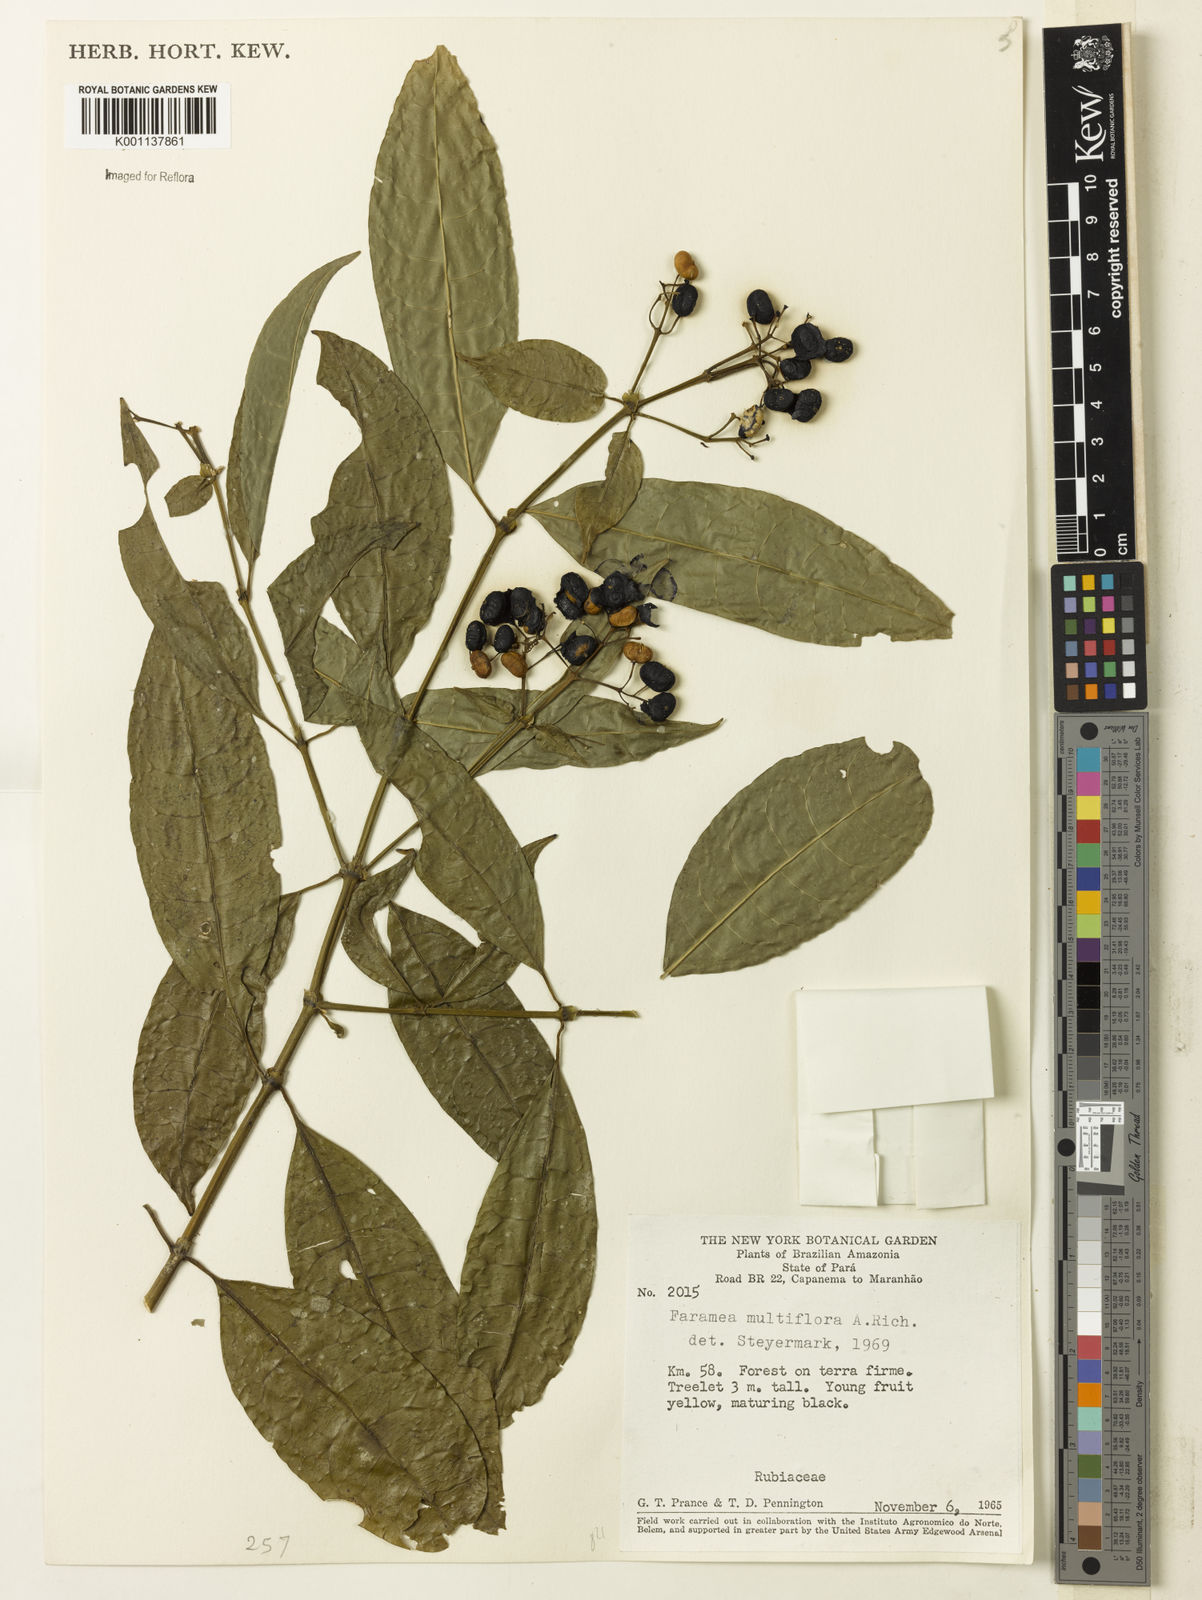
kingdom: Plantae
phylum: Tracheophyta
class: Magnoliopsida
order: Gentianales
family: Rubiaceae
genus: Faramea
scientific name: Faramea multiflora
